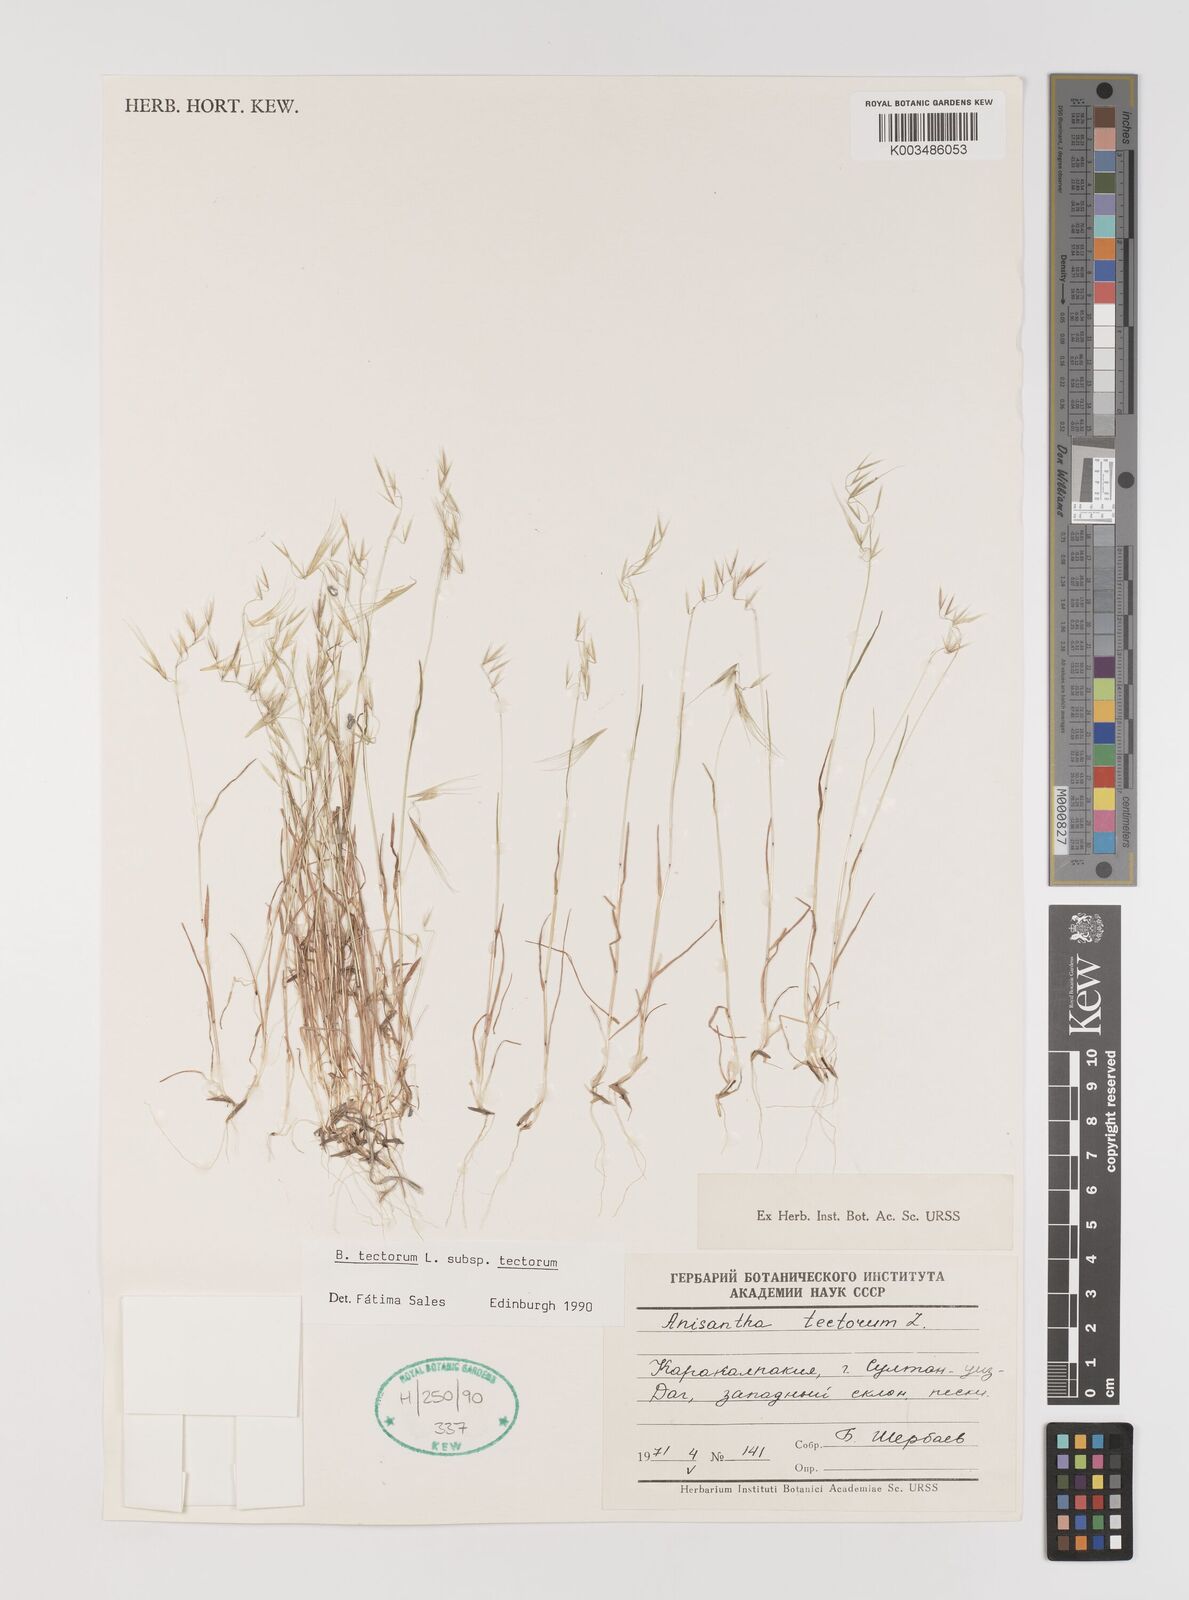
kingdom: Plantae
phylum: Tracheophyta
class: Liliopsida
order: Poales
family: Poaceae
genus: Bromus
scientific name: Bromus tectorum
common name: Cheatgrass
